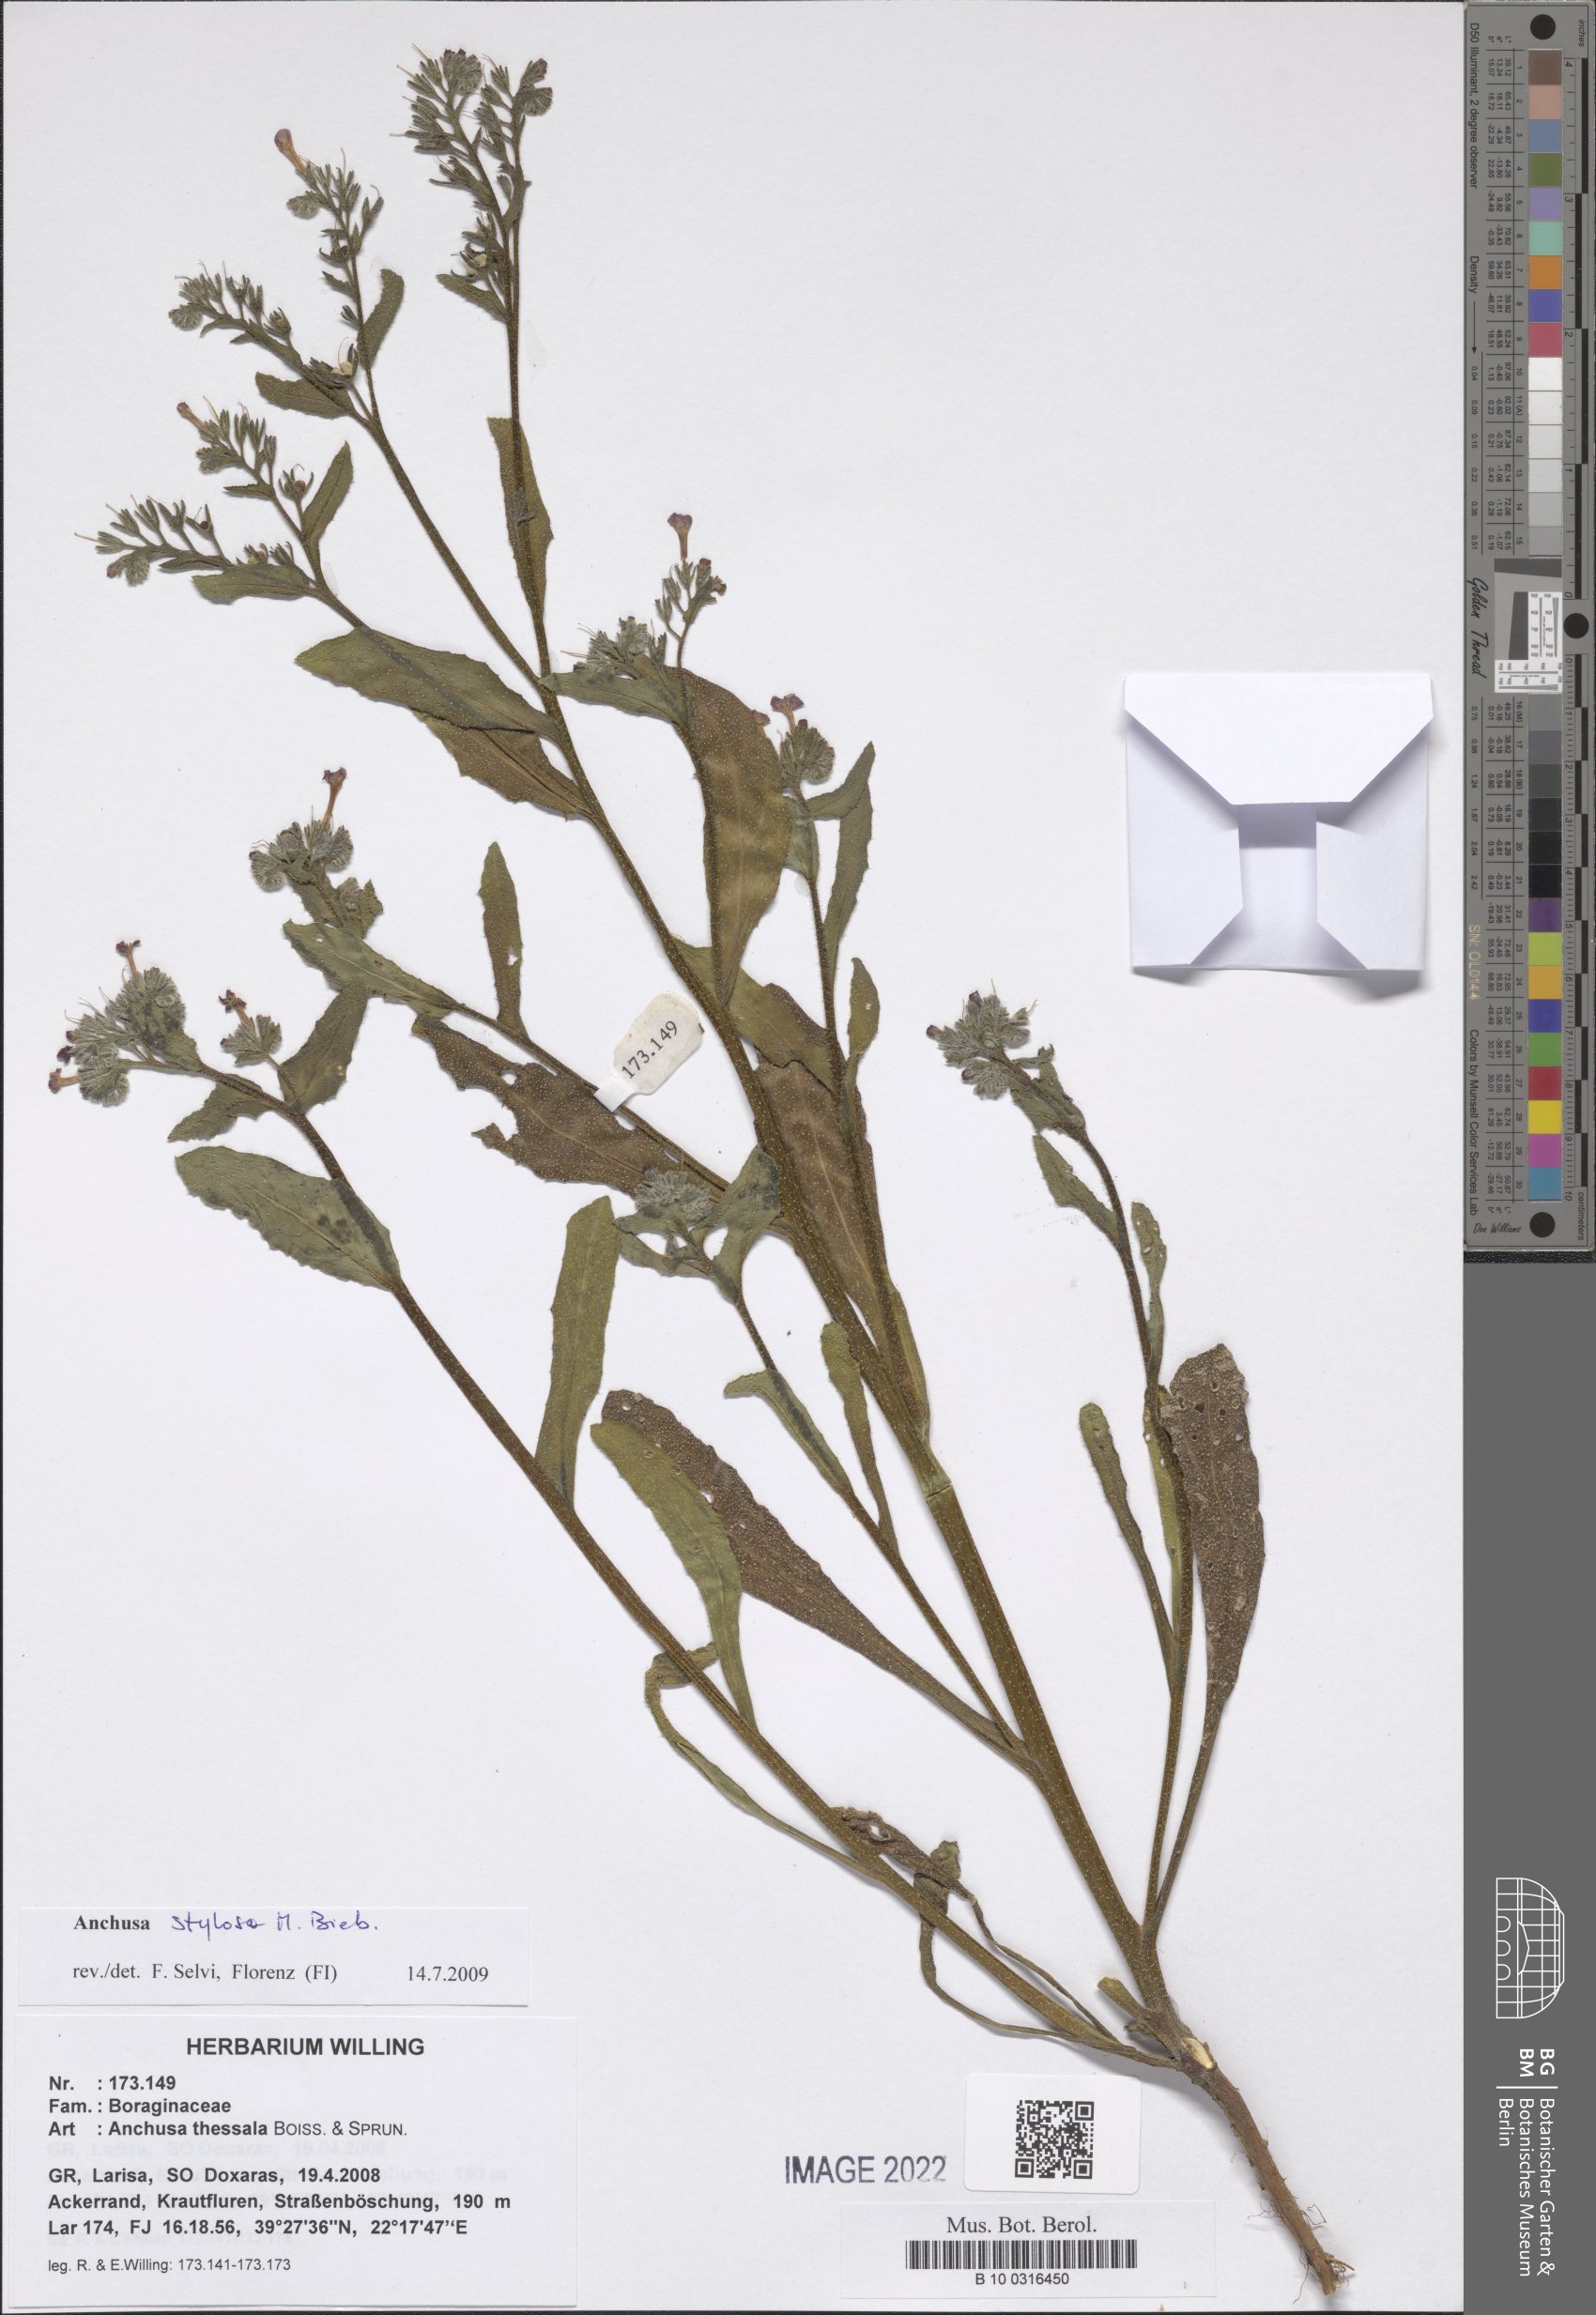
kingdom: Plantae
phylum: Tracheophyta
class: Magnoliopsida
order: Boraginales
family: Boraginaceae
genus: Anchusa
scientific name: Anchusa thessala
